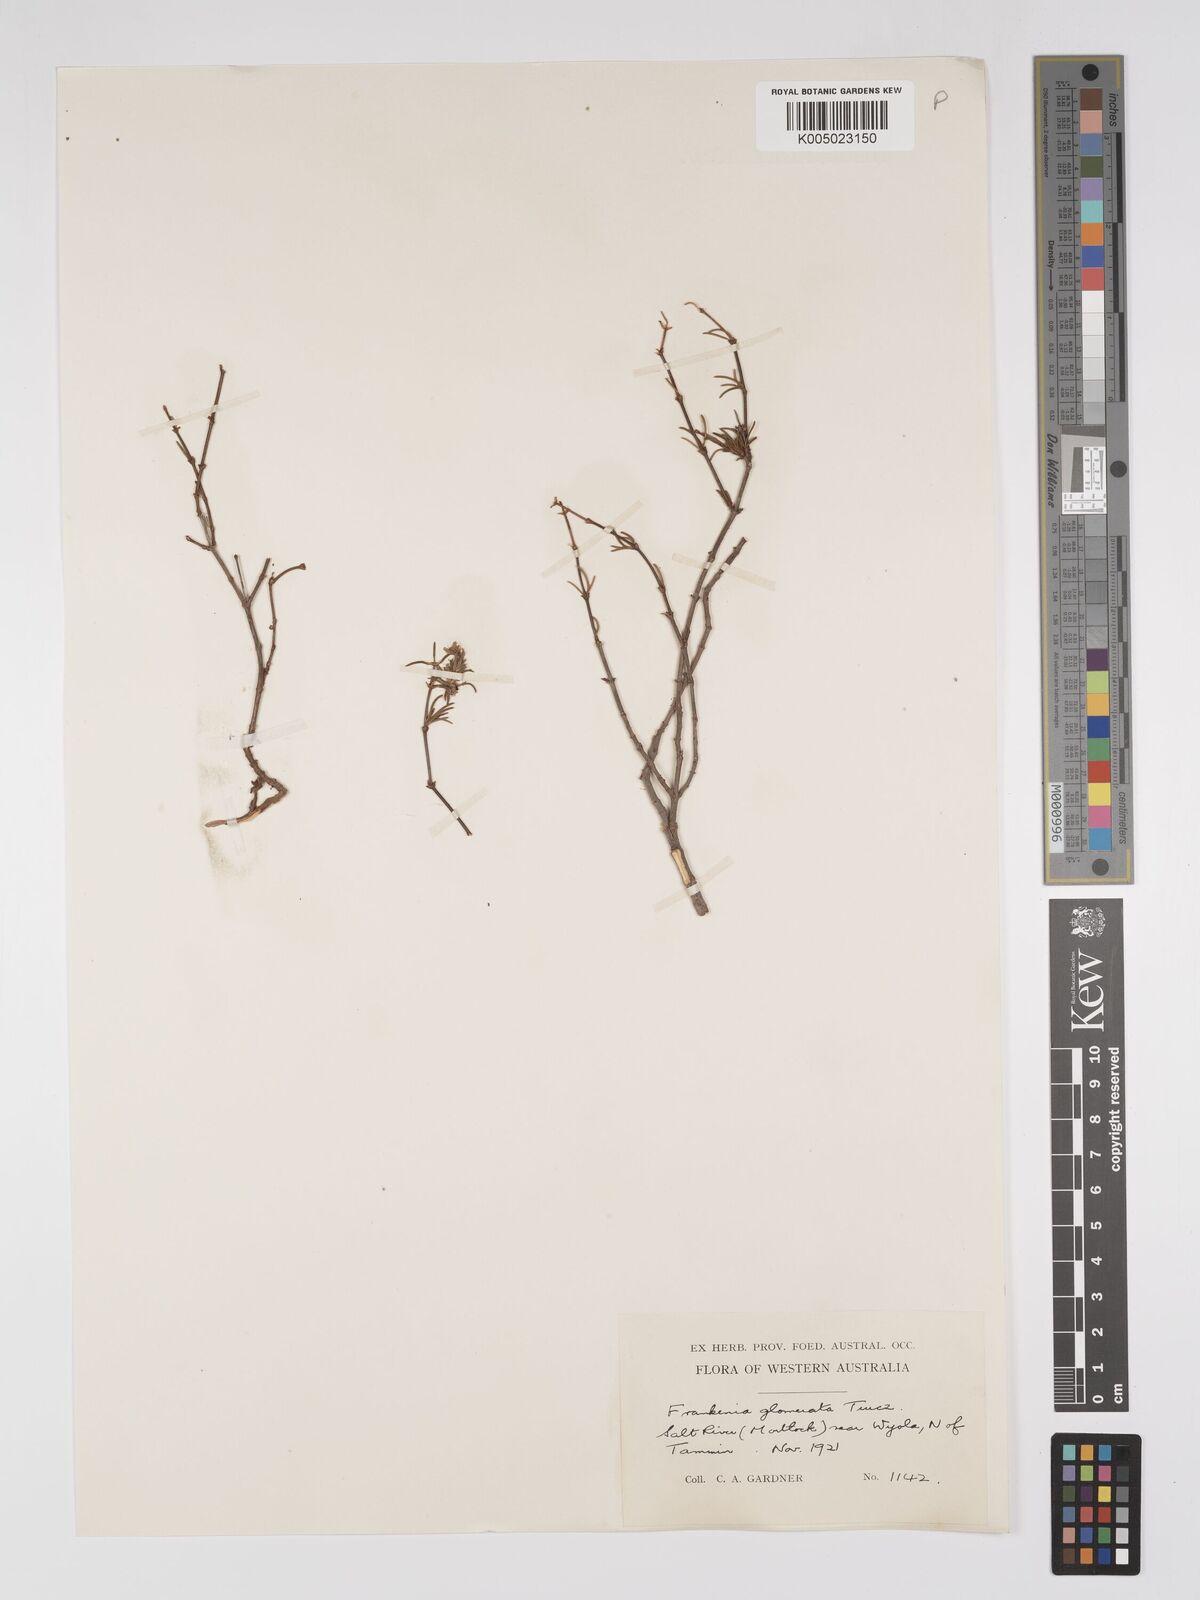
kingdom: Plantae
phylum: Tracheophyta
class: Magnoliopsida
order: Caryophyllales
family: Frankeniaceae
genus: Frankenia
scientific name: Frankenia glomerata
